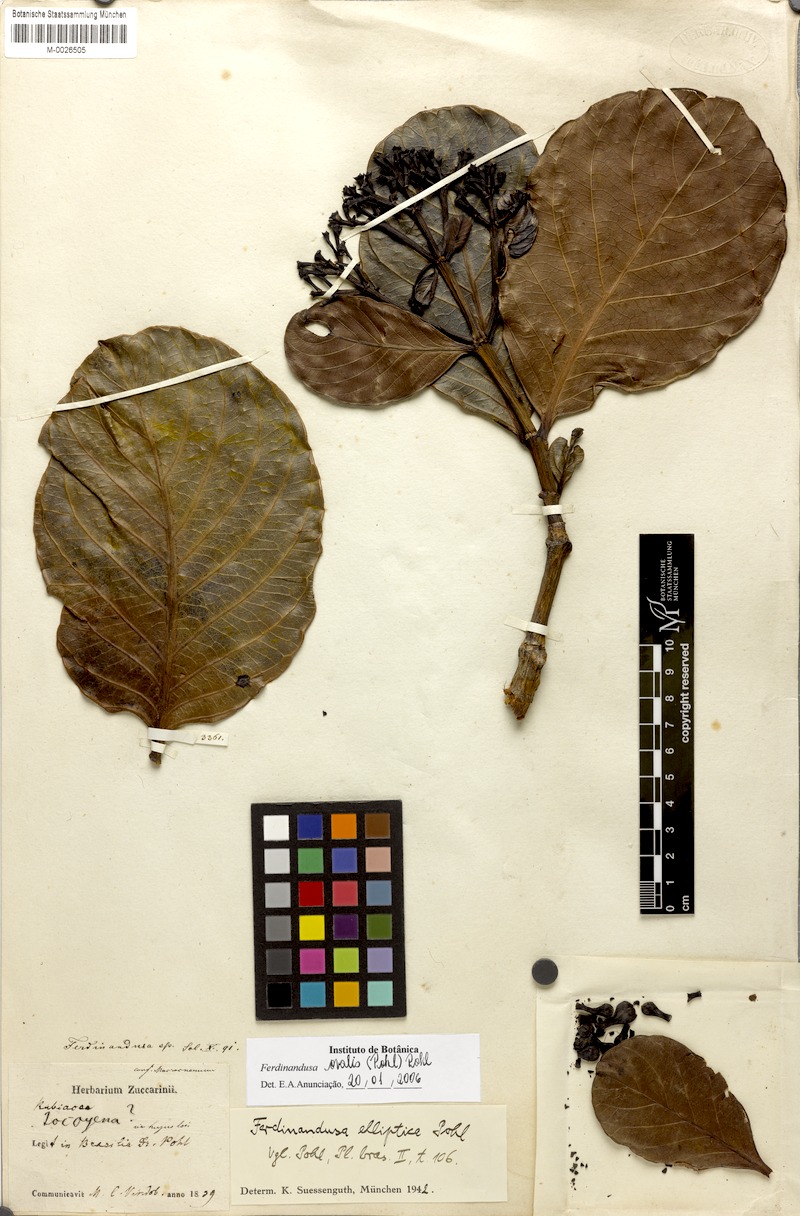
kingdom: Plantae
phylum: Tracheophyta
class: Magnoliopsida
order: Gentianales
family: Rubiaceae
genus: Ferdinandusa
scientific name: Ferdinandusa elliptica
